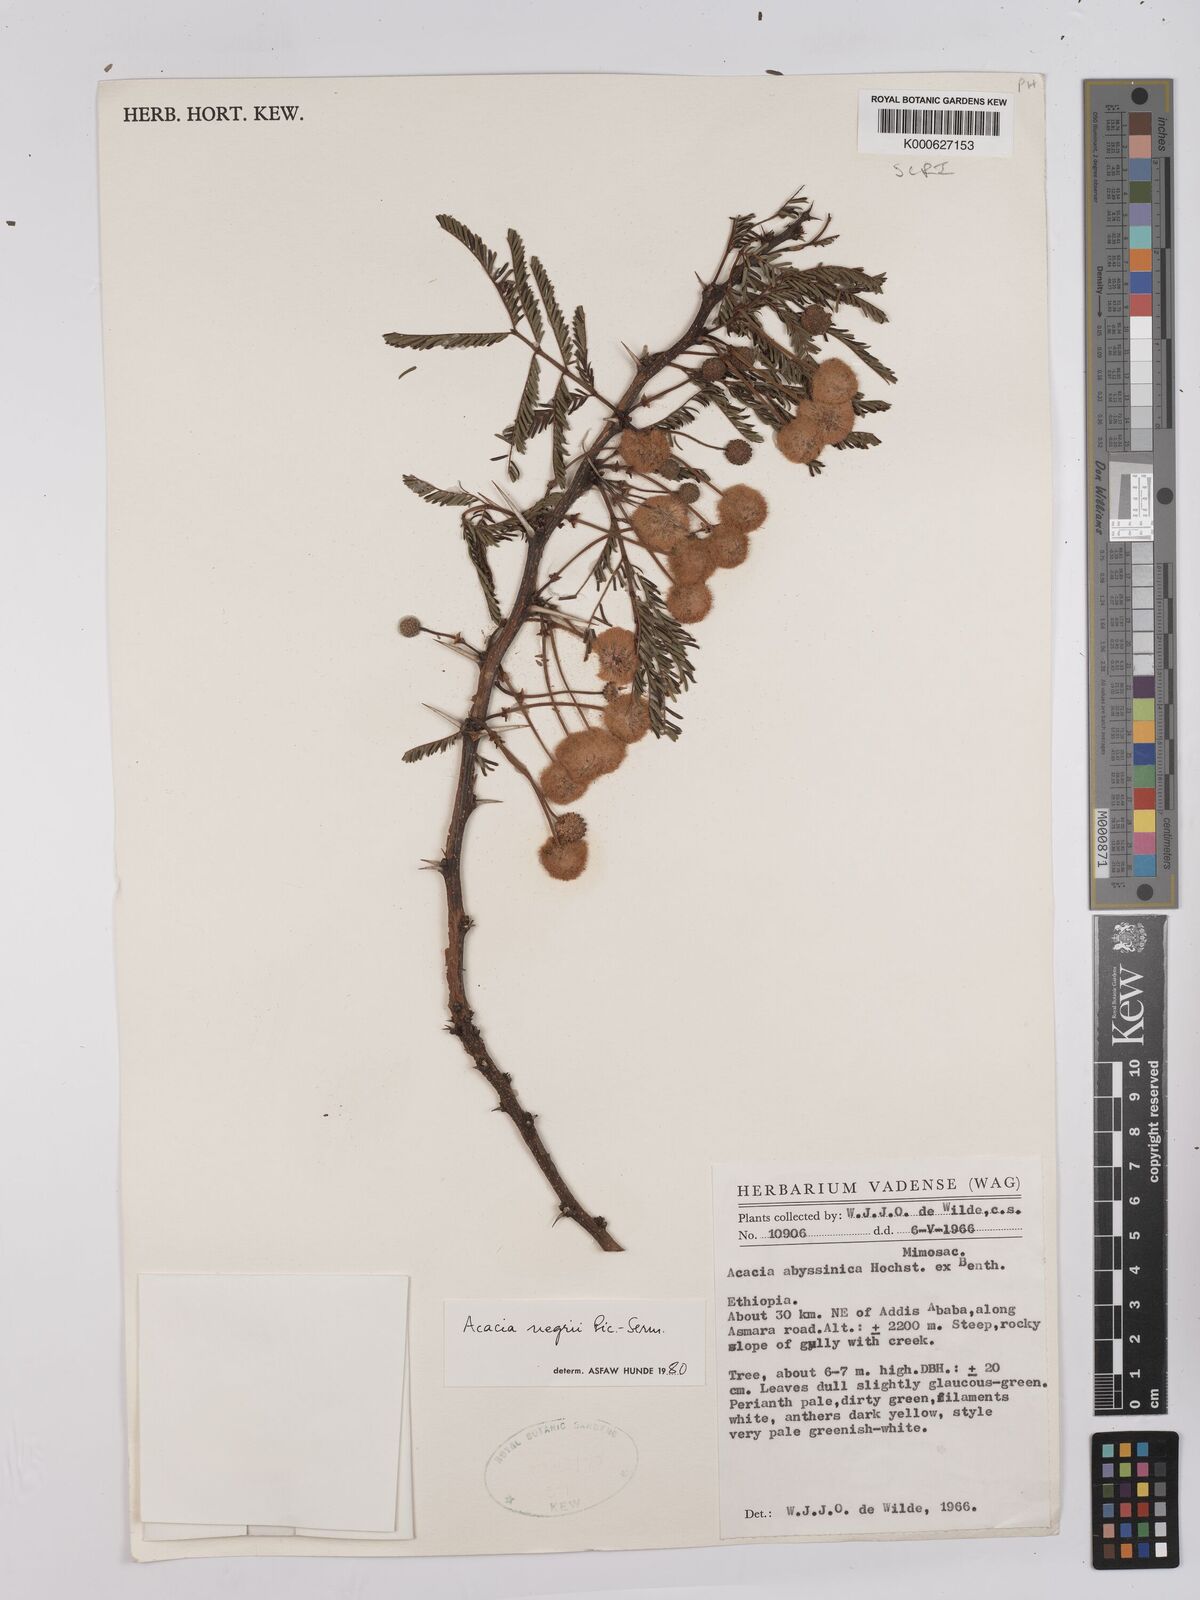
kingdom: Plantae
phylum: Tracheophyta
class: Magnoliopsida
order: Fabales
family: Fabaceae
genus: Vachellia
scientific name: Vachellia negrii
